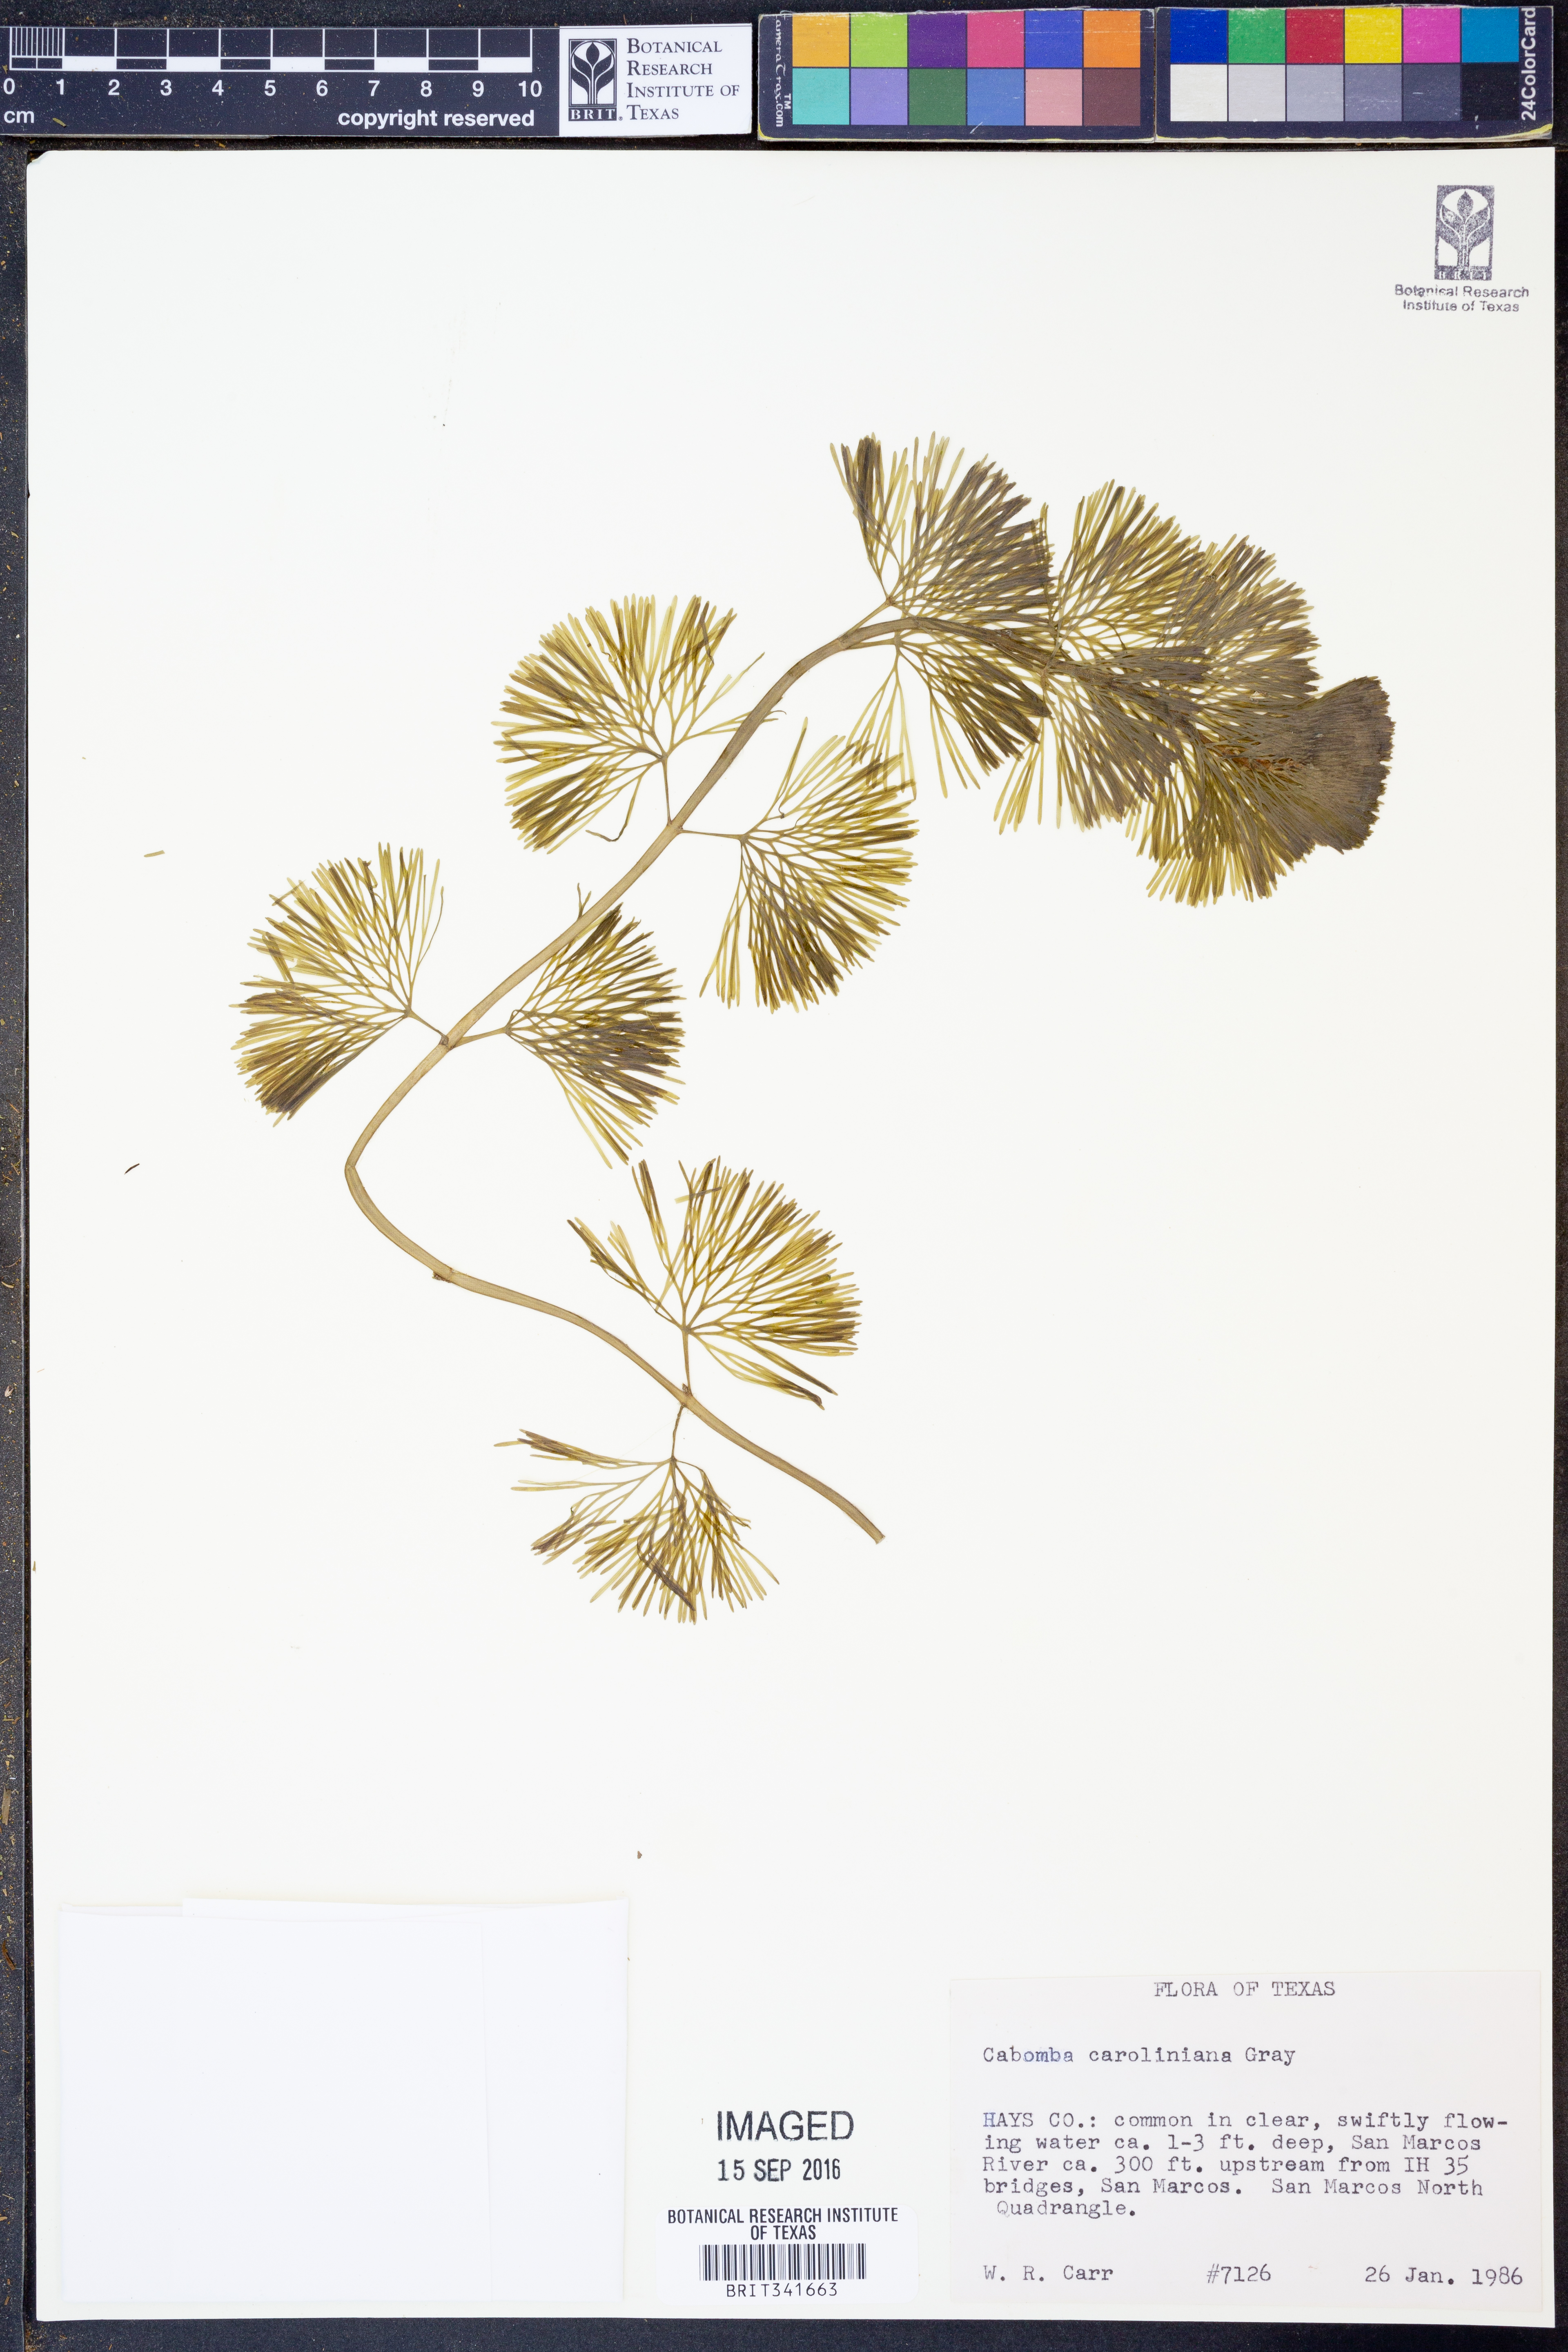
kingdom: Plantae
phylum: Tracheophyta
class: Magnoliopsida
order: Nymphaeales
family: Cabombaceae
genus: Cabomba
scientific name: Cabomba caroliniana
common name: Fanwort
